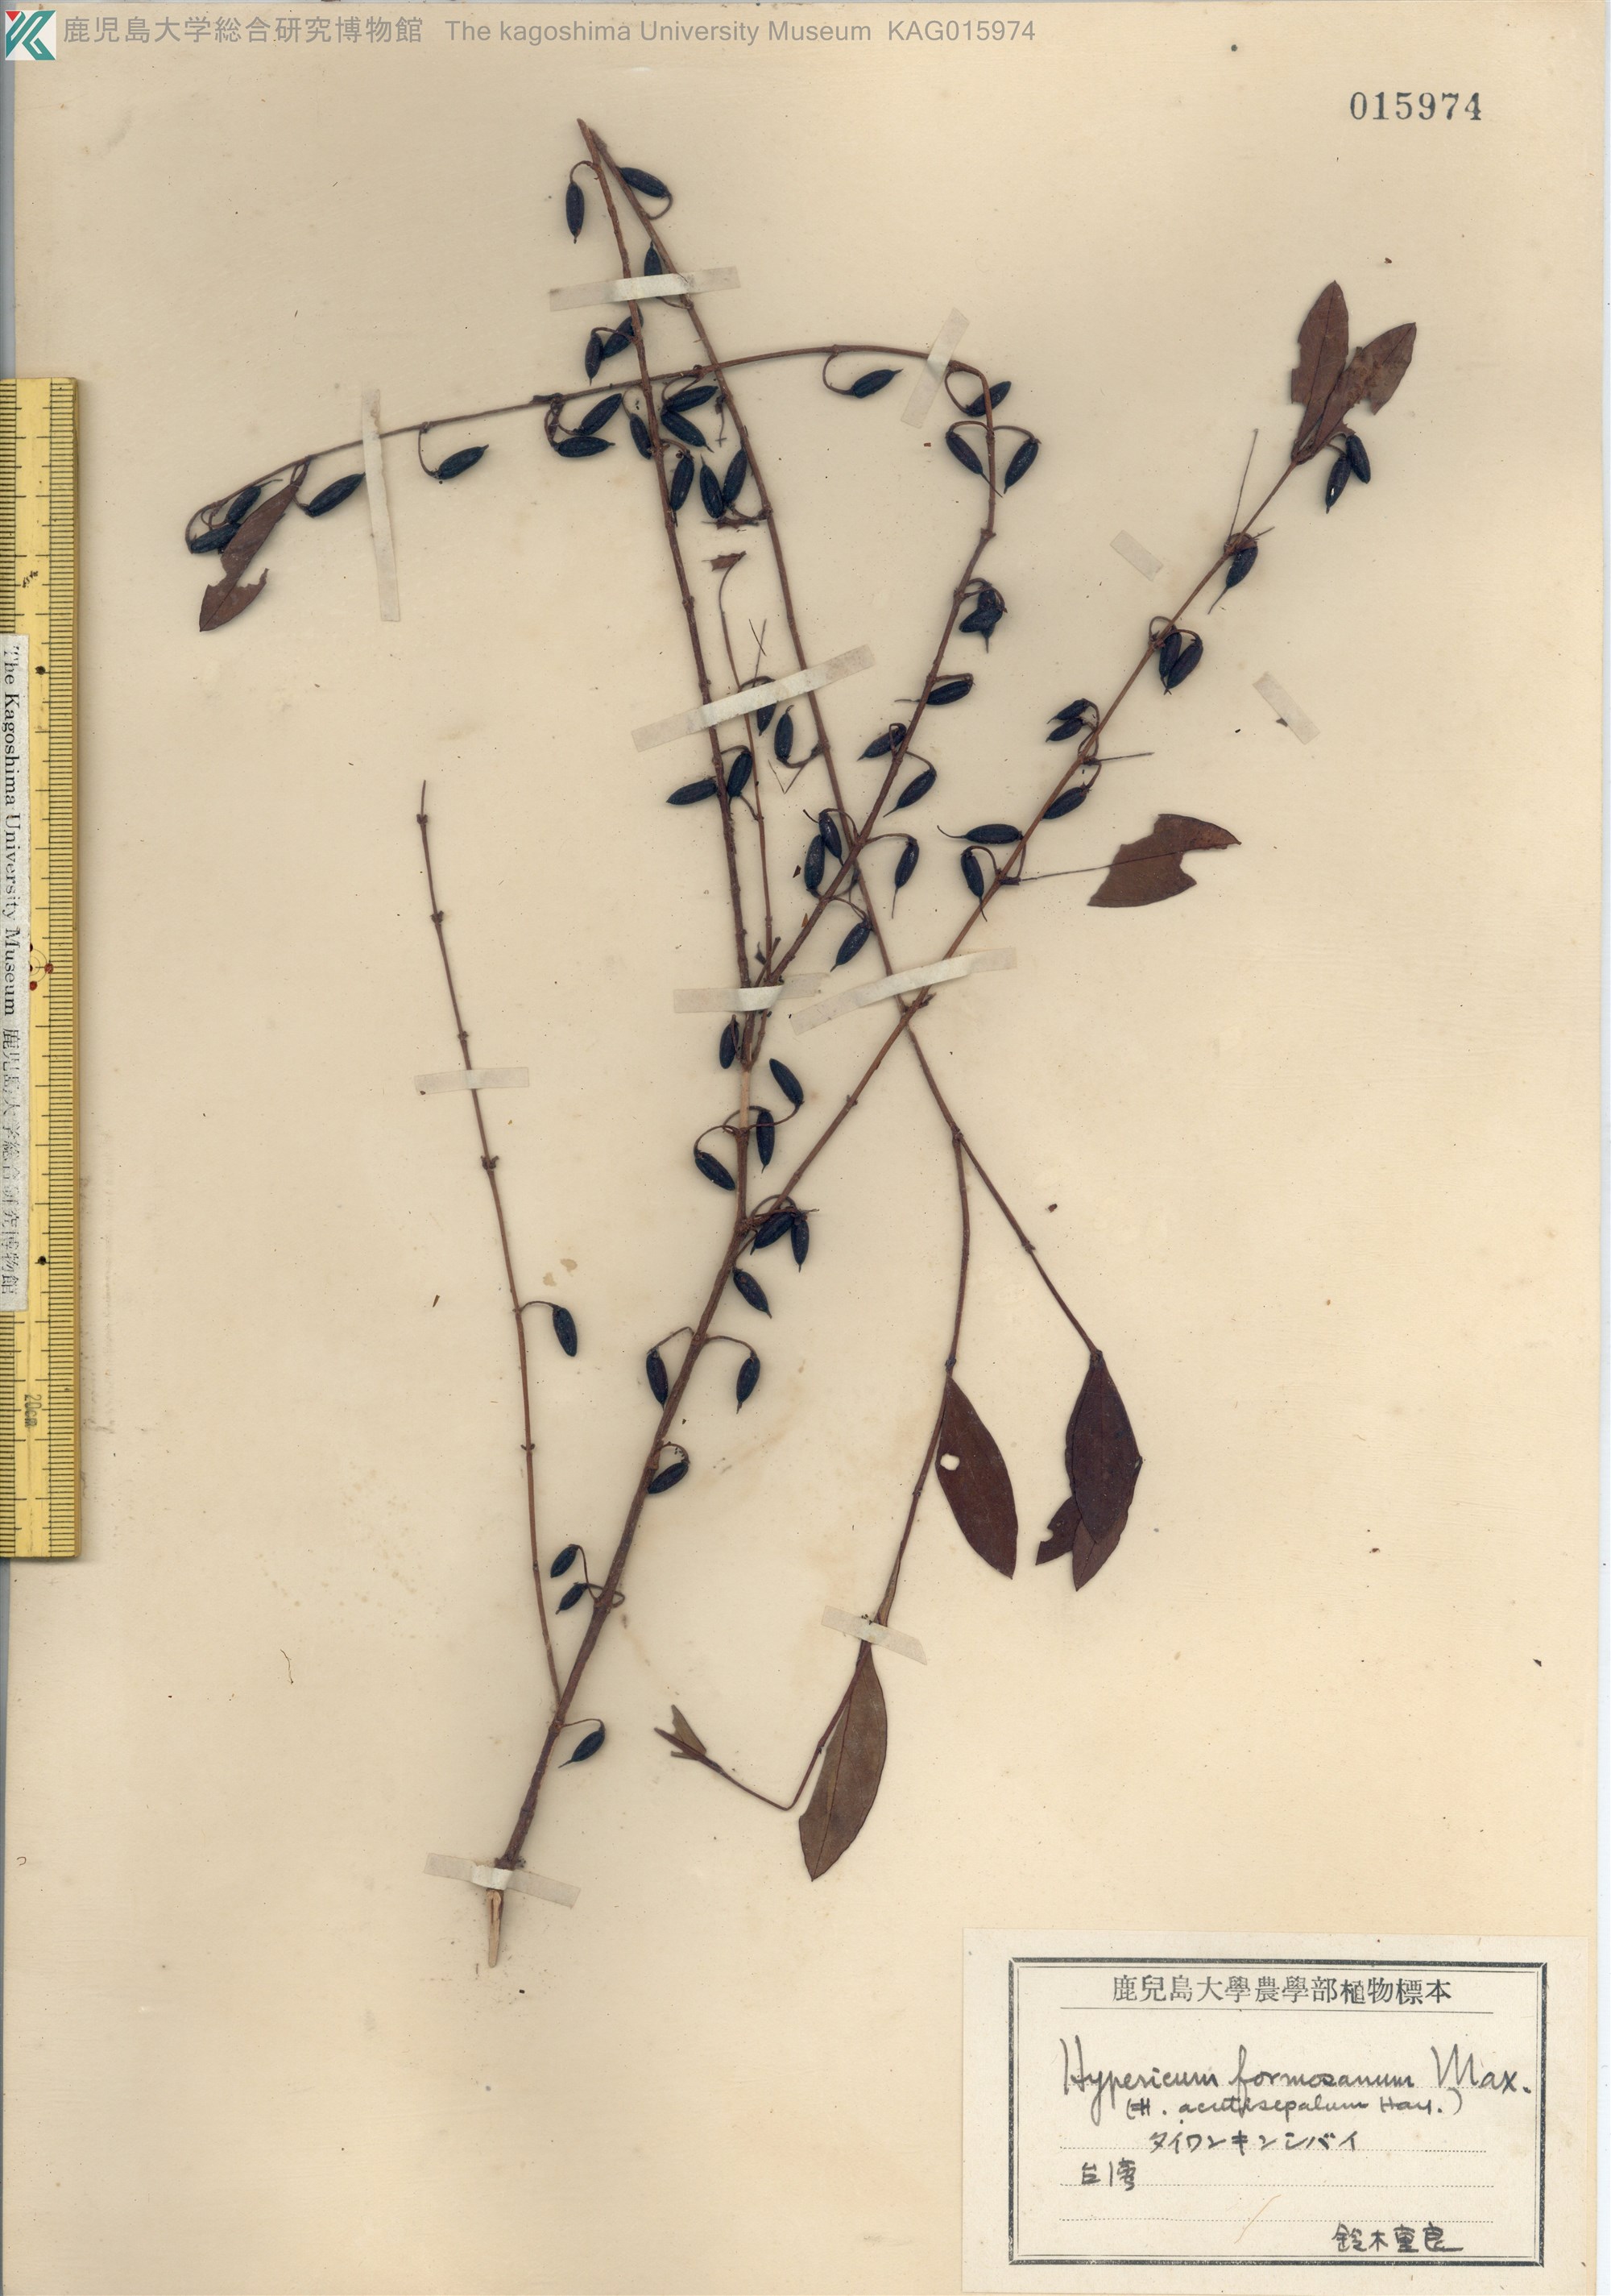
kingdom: Plantae
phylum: Tracheophyta
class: Magnoliopsida
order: Malpighiales
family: Hypericaceae
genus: Hypericum
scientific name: Hypericum geminiflorum
